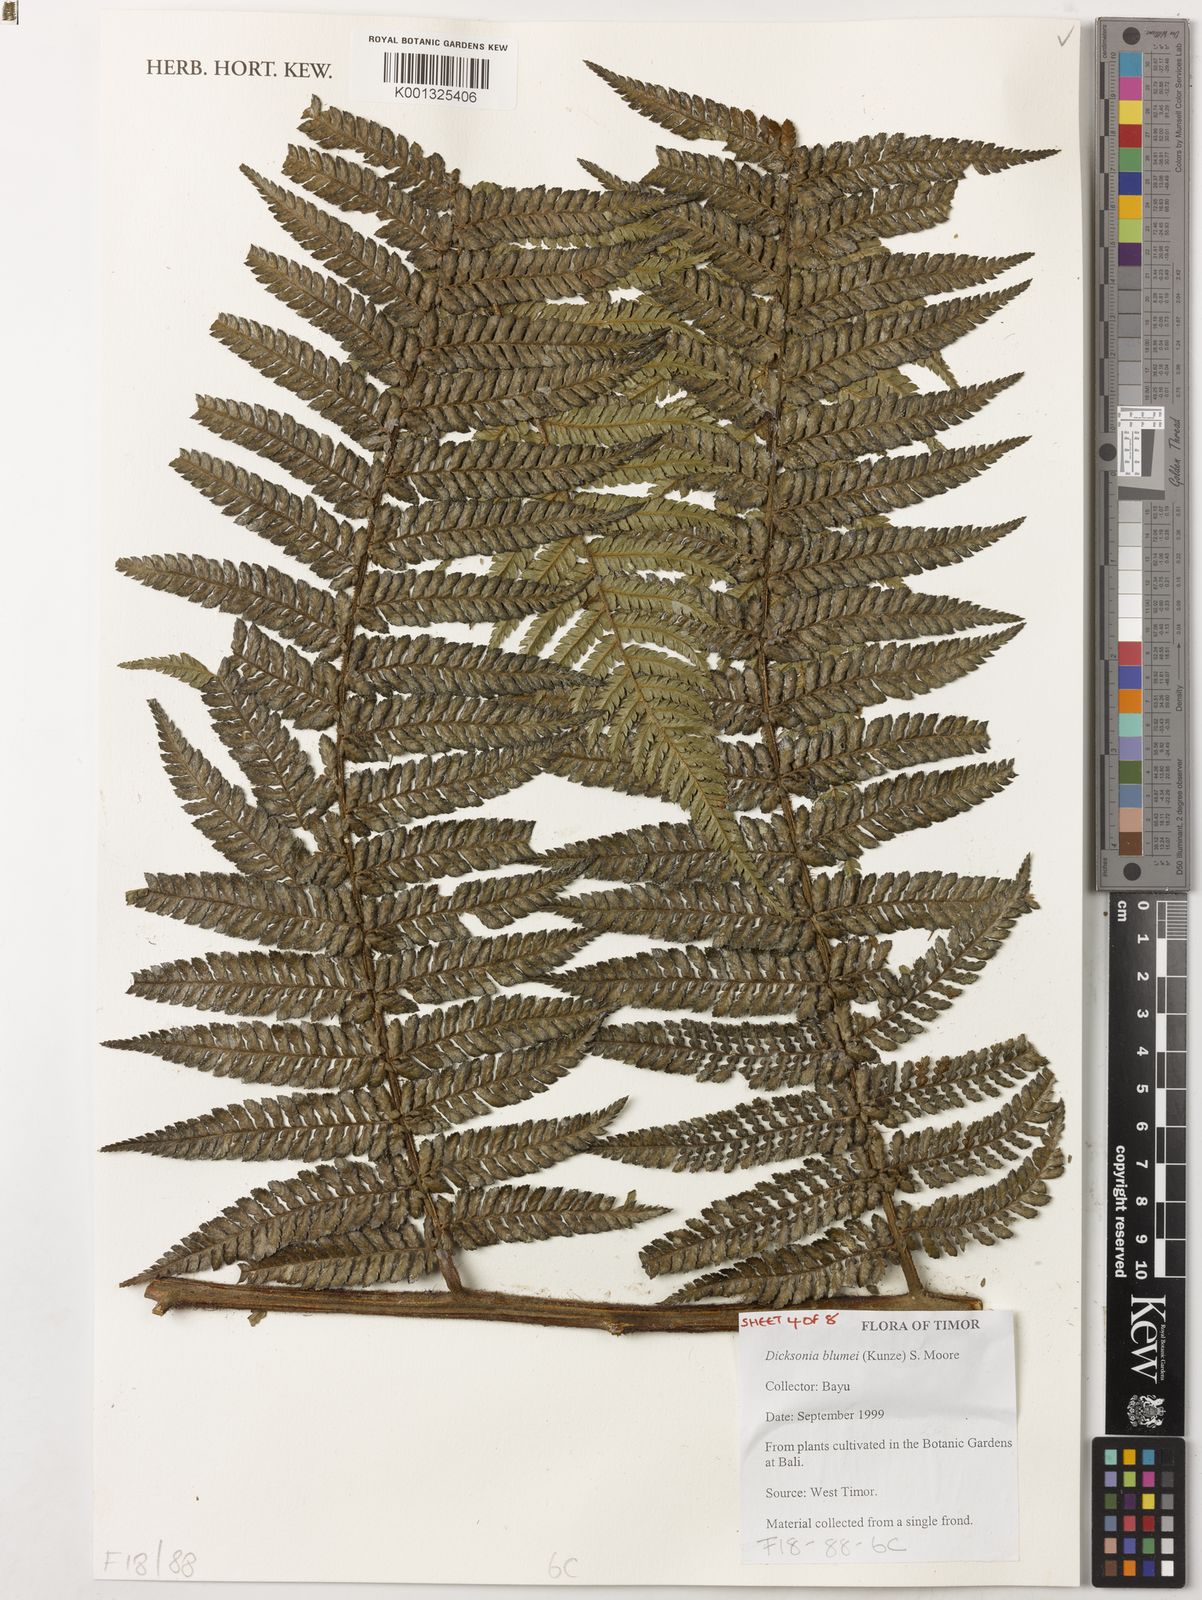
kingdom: Plantae
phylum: Tracheophyta
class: Polypodiopsida
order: Cyatheales
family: Dicksoniaceae
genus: Dicksonia
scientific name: Dicksonia
